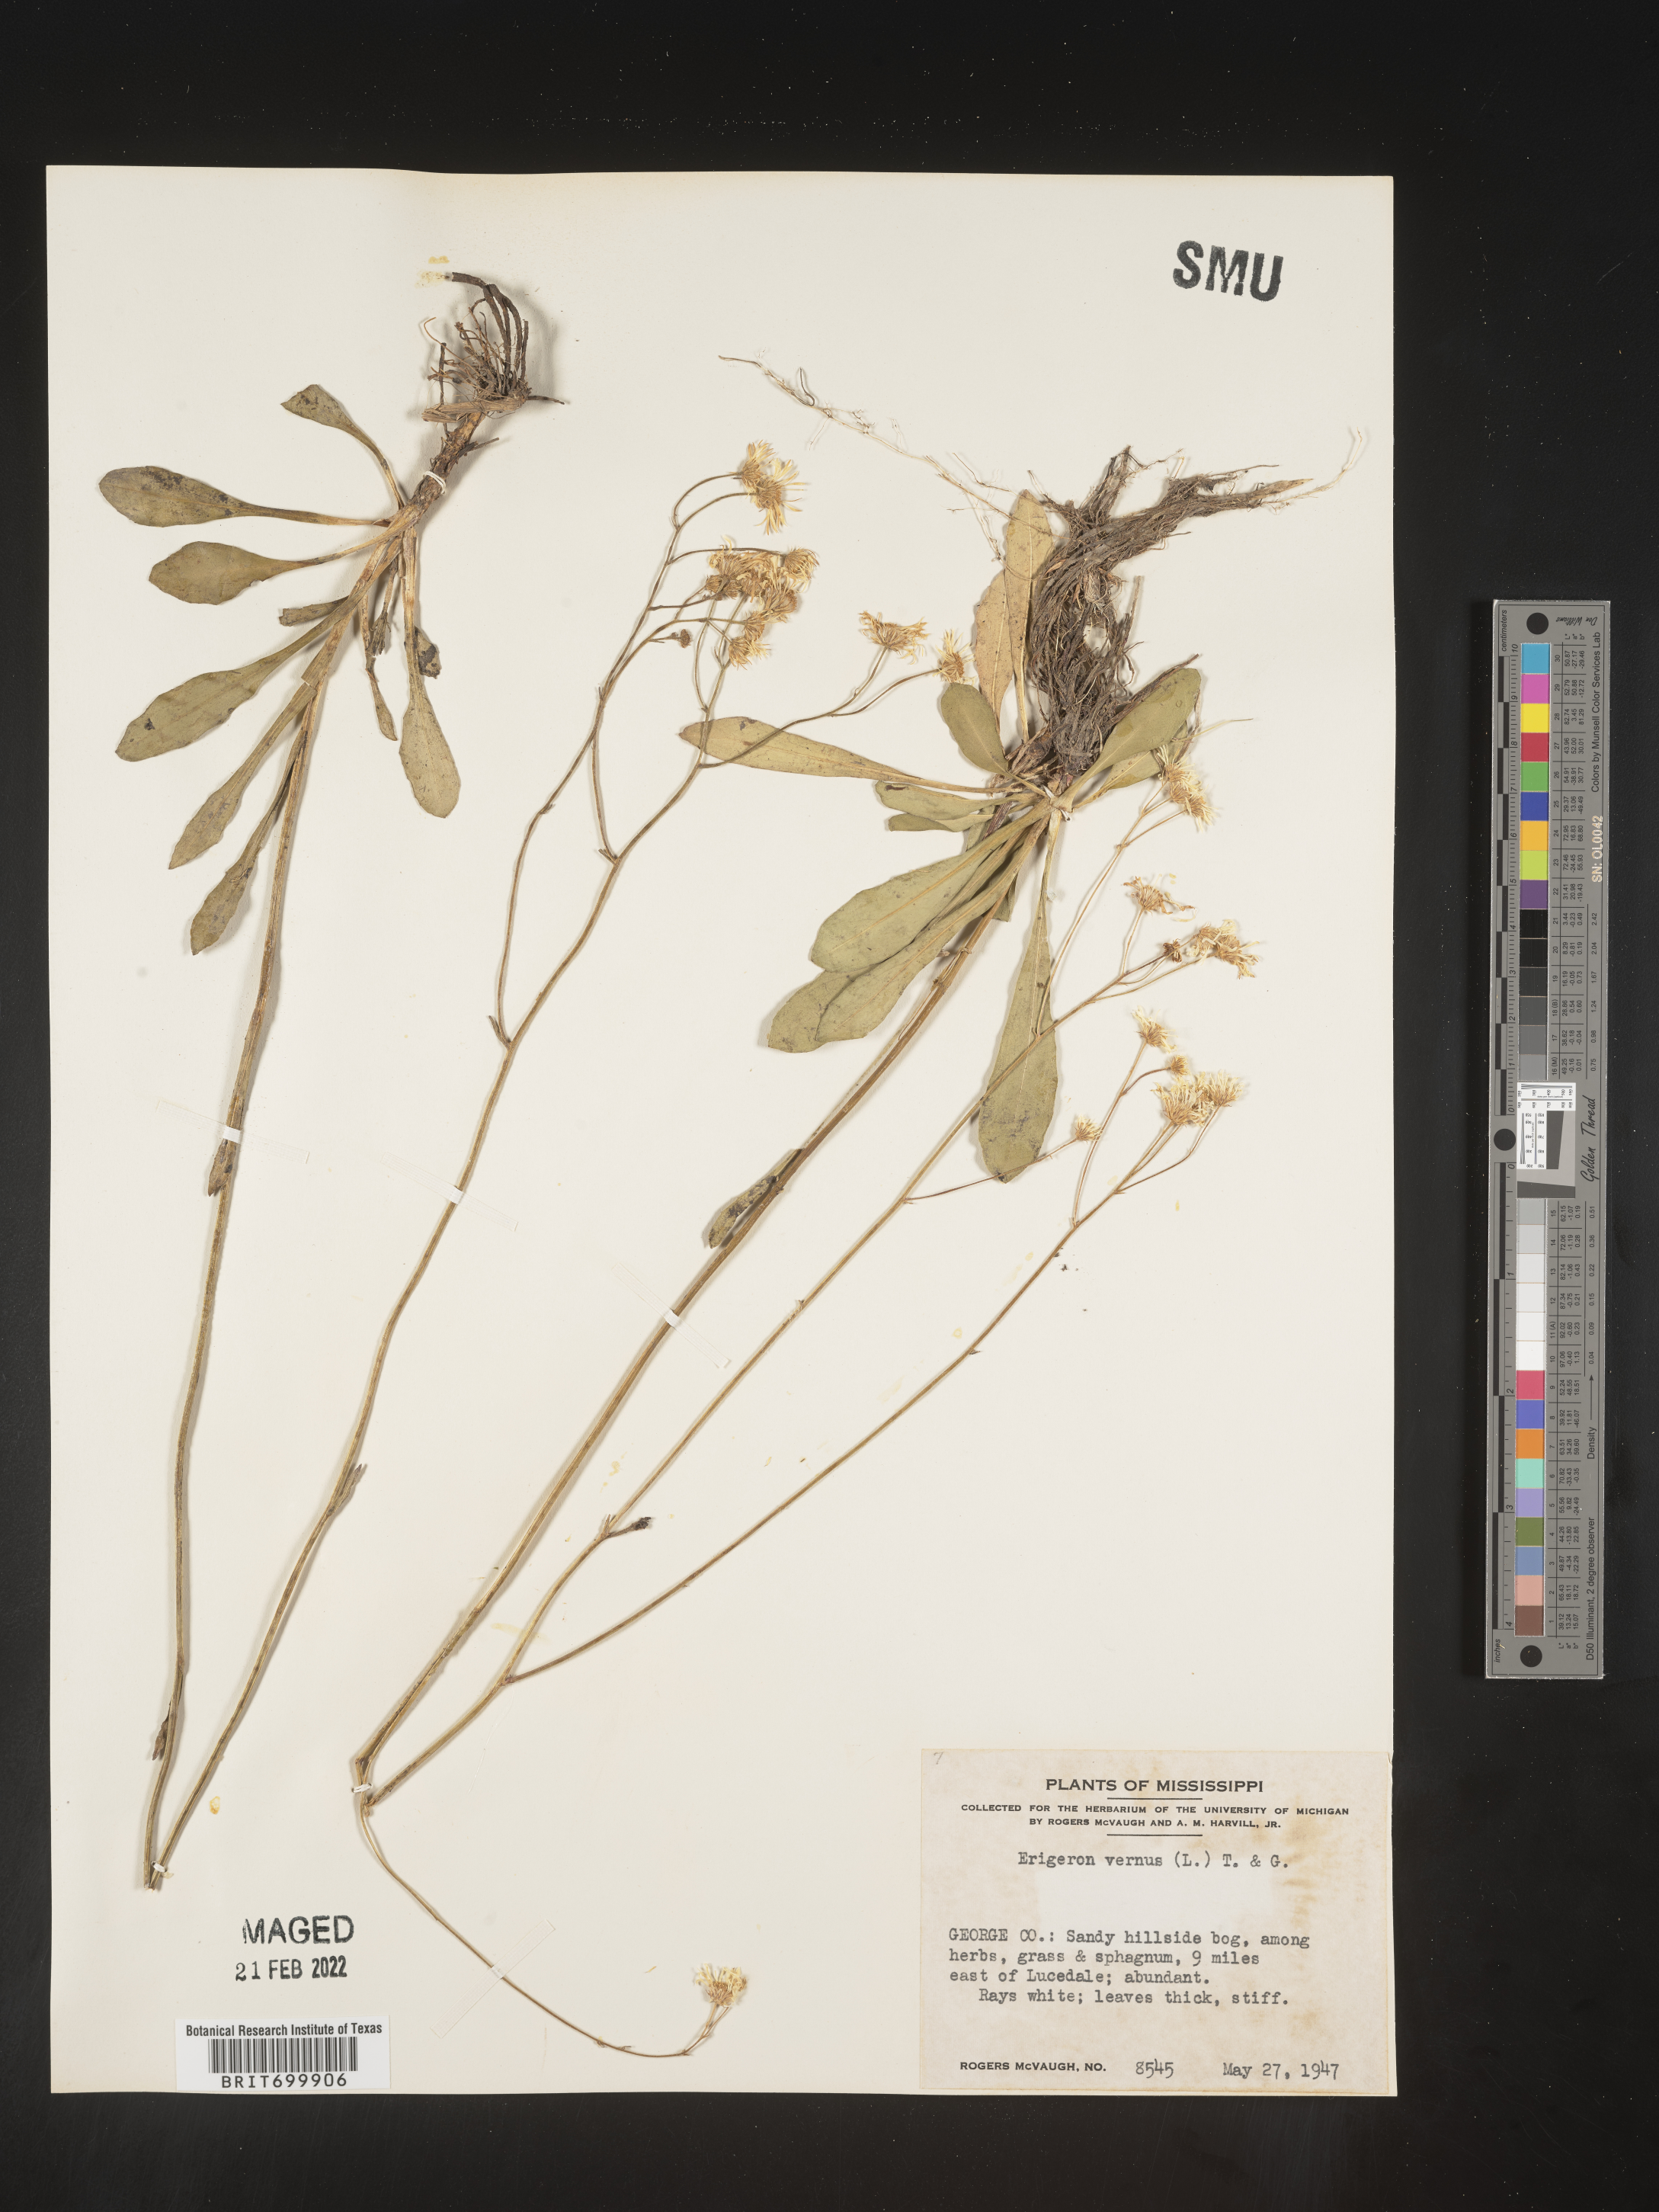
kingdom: Plantae
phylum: Tracheophyta
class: Magnoliopsida
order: Asterales
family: Asteraceae
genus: Erigeron
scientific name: Erigeron vernus
